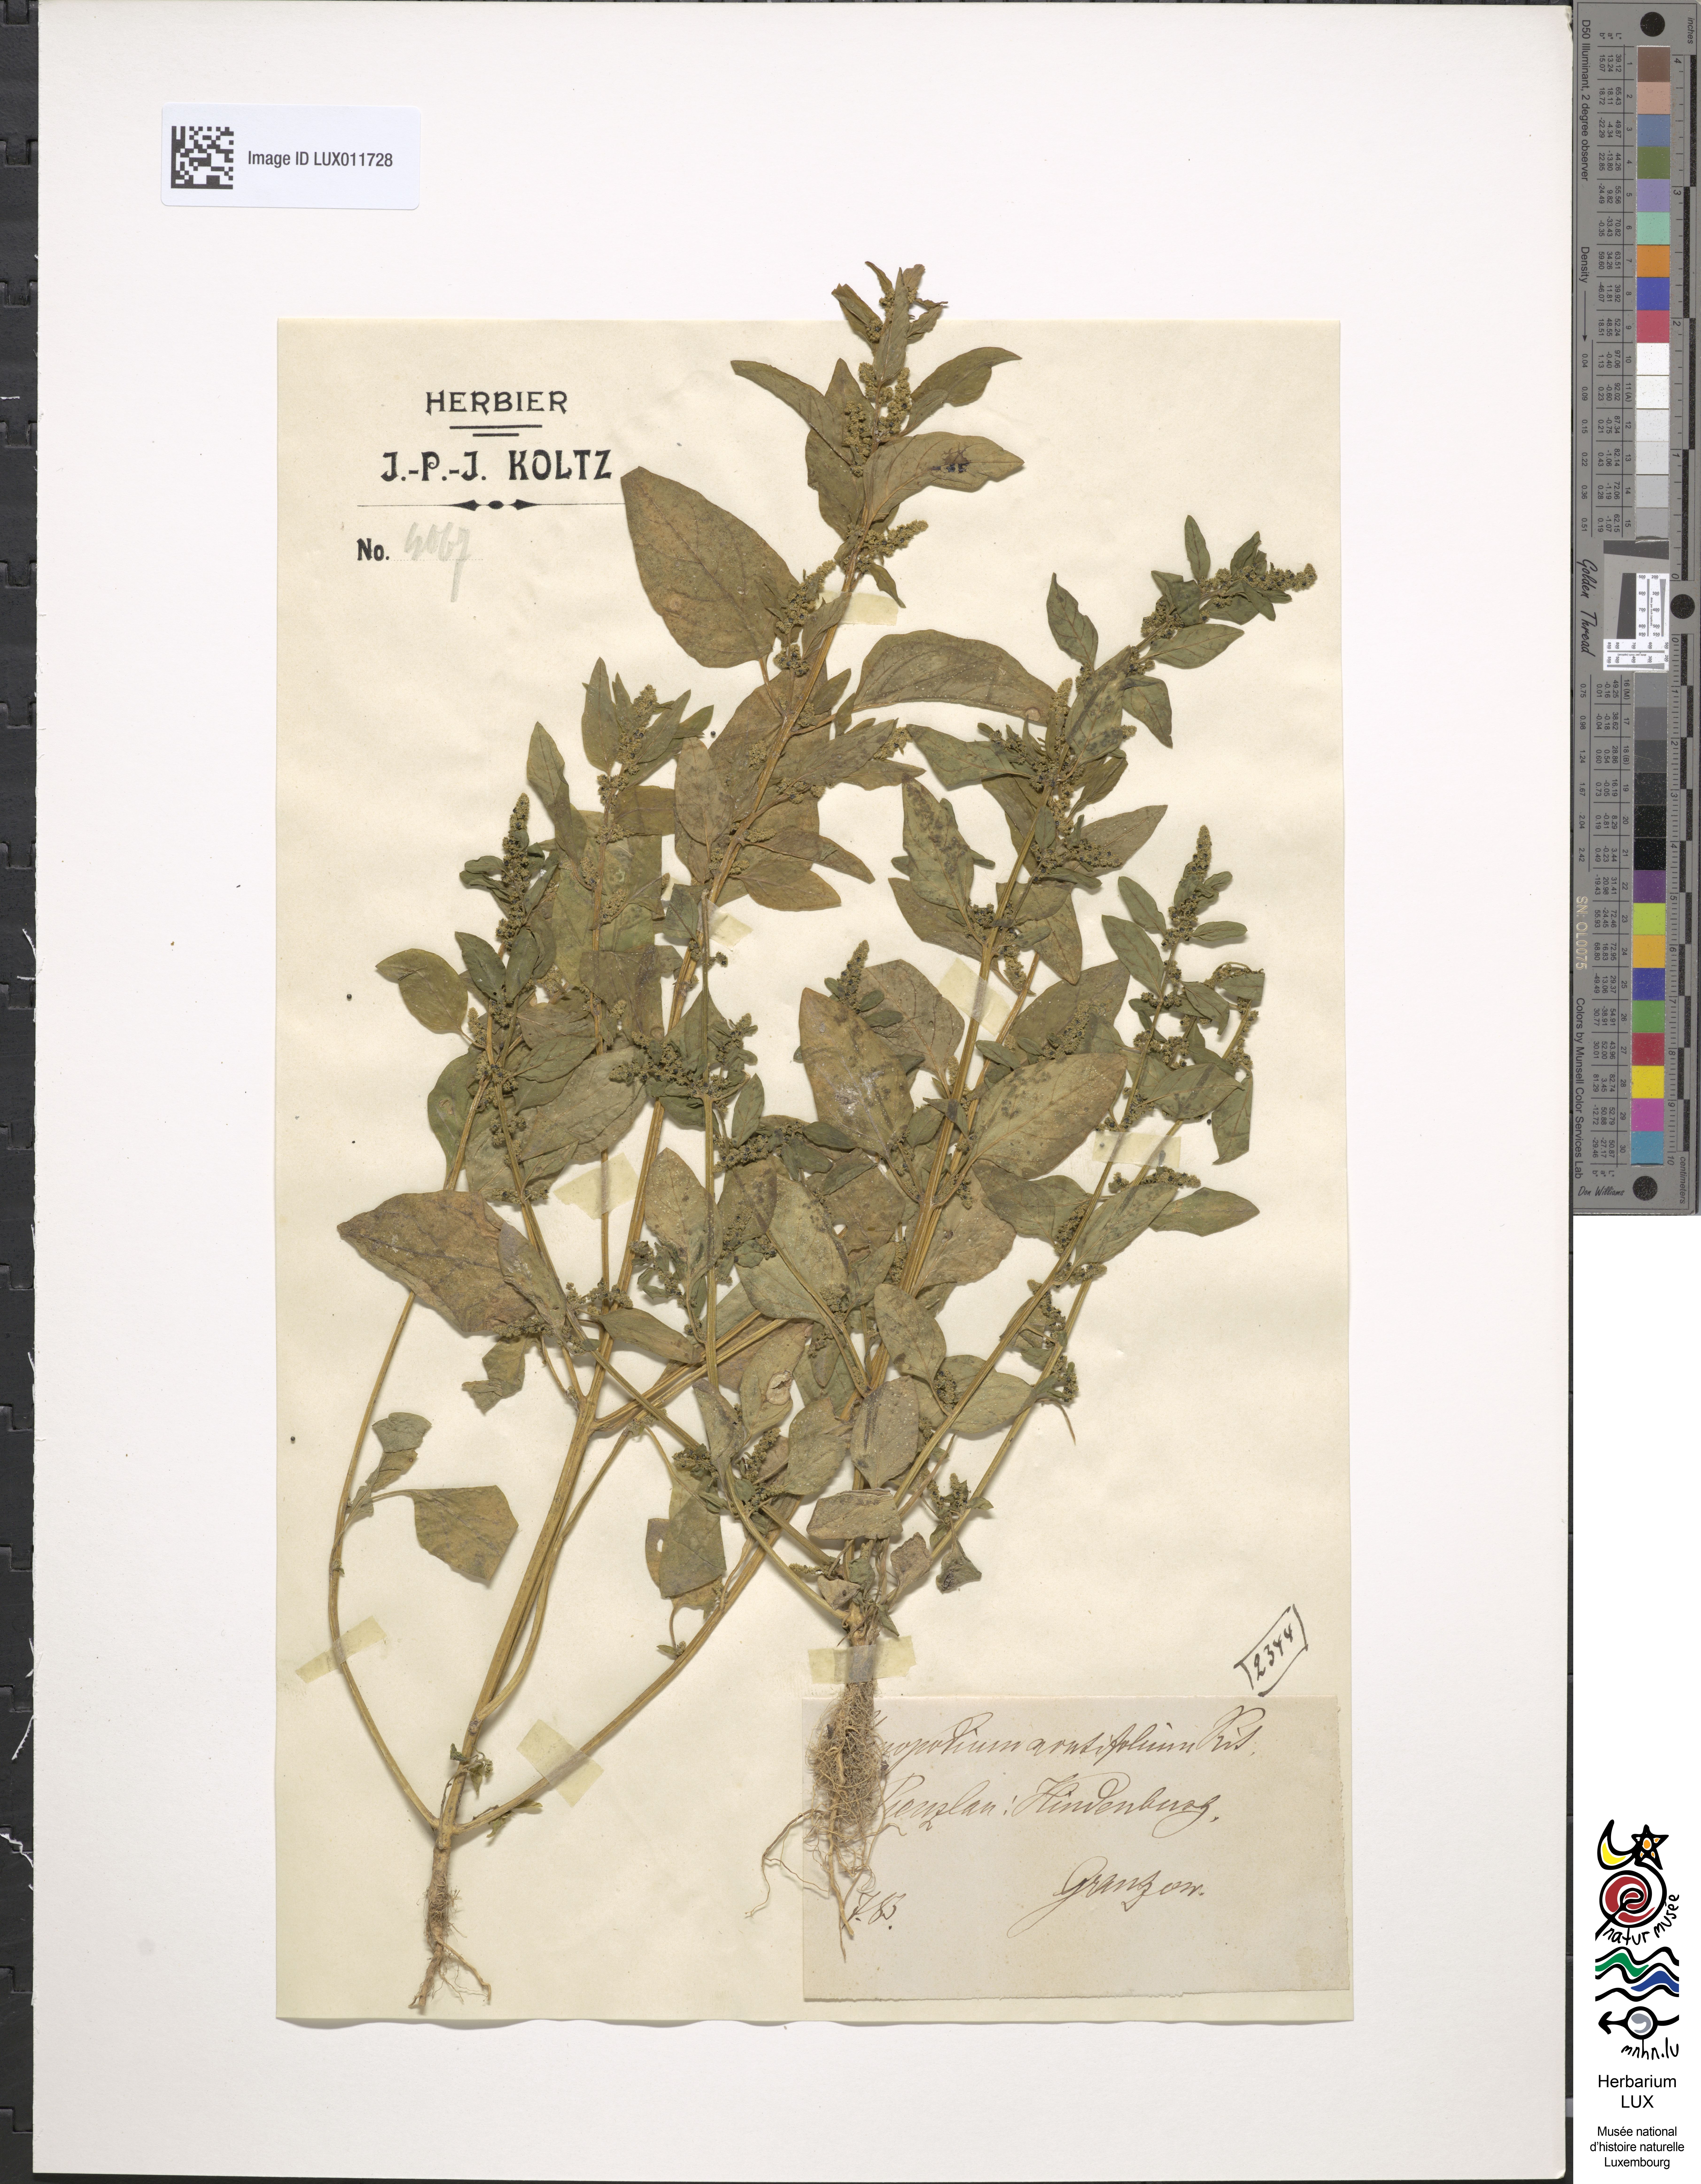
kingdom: Plantae
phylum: Tracheophyta
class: Magnoliopsida
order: Caryophyllales
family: Amaranthaceae
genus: Lipandra
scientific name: Lipandra polysperma
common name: Many-seed goosefoot
